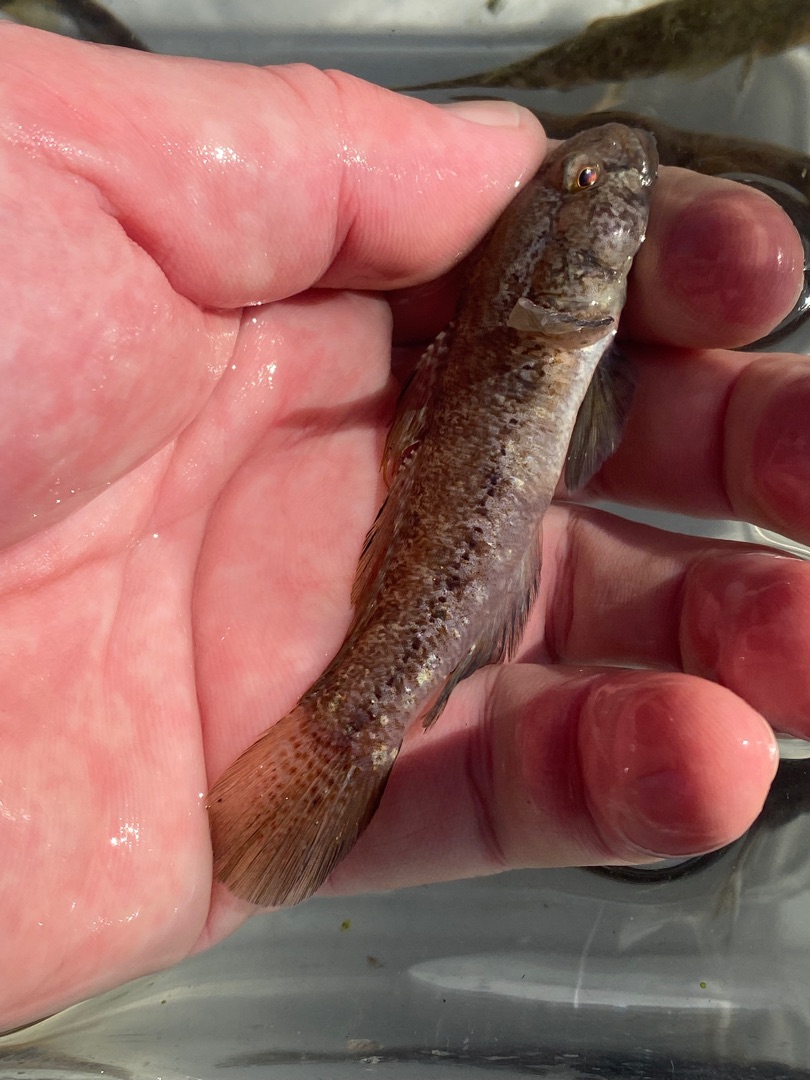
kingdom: Animalia
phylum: Chordata
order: Perciformes
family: Gobiidae
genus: Gobius
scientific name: Gobius niger
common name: Sortkutling
